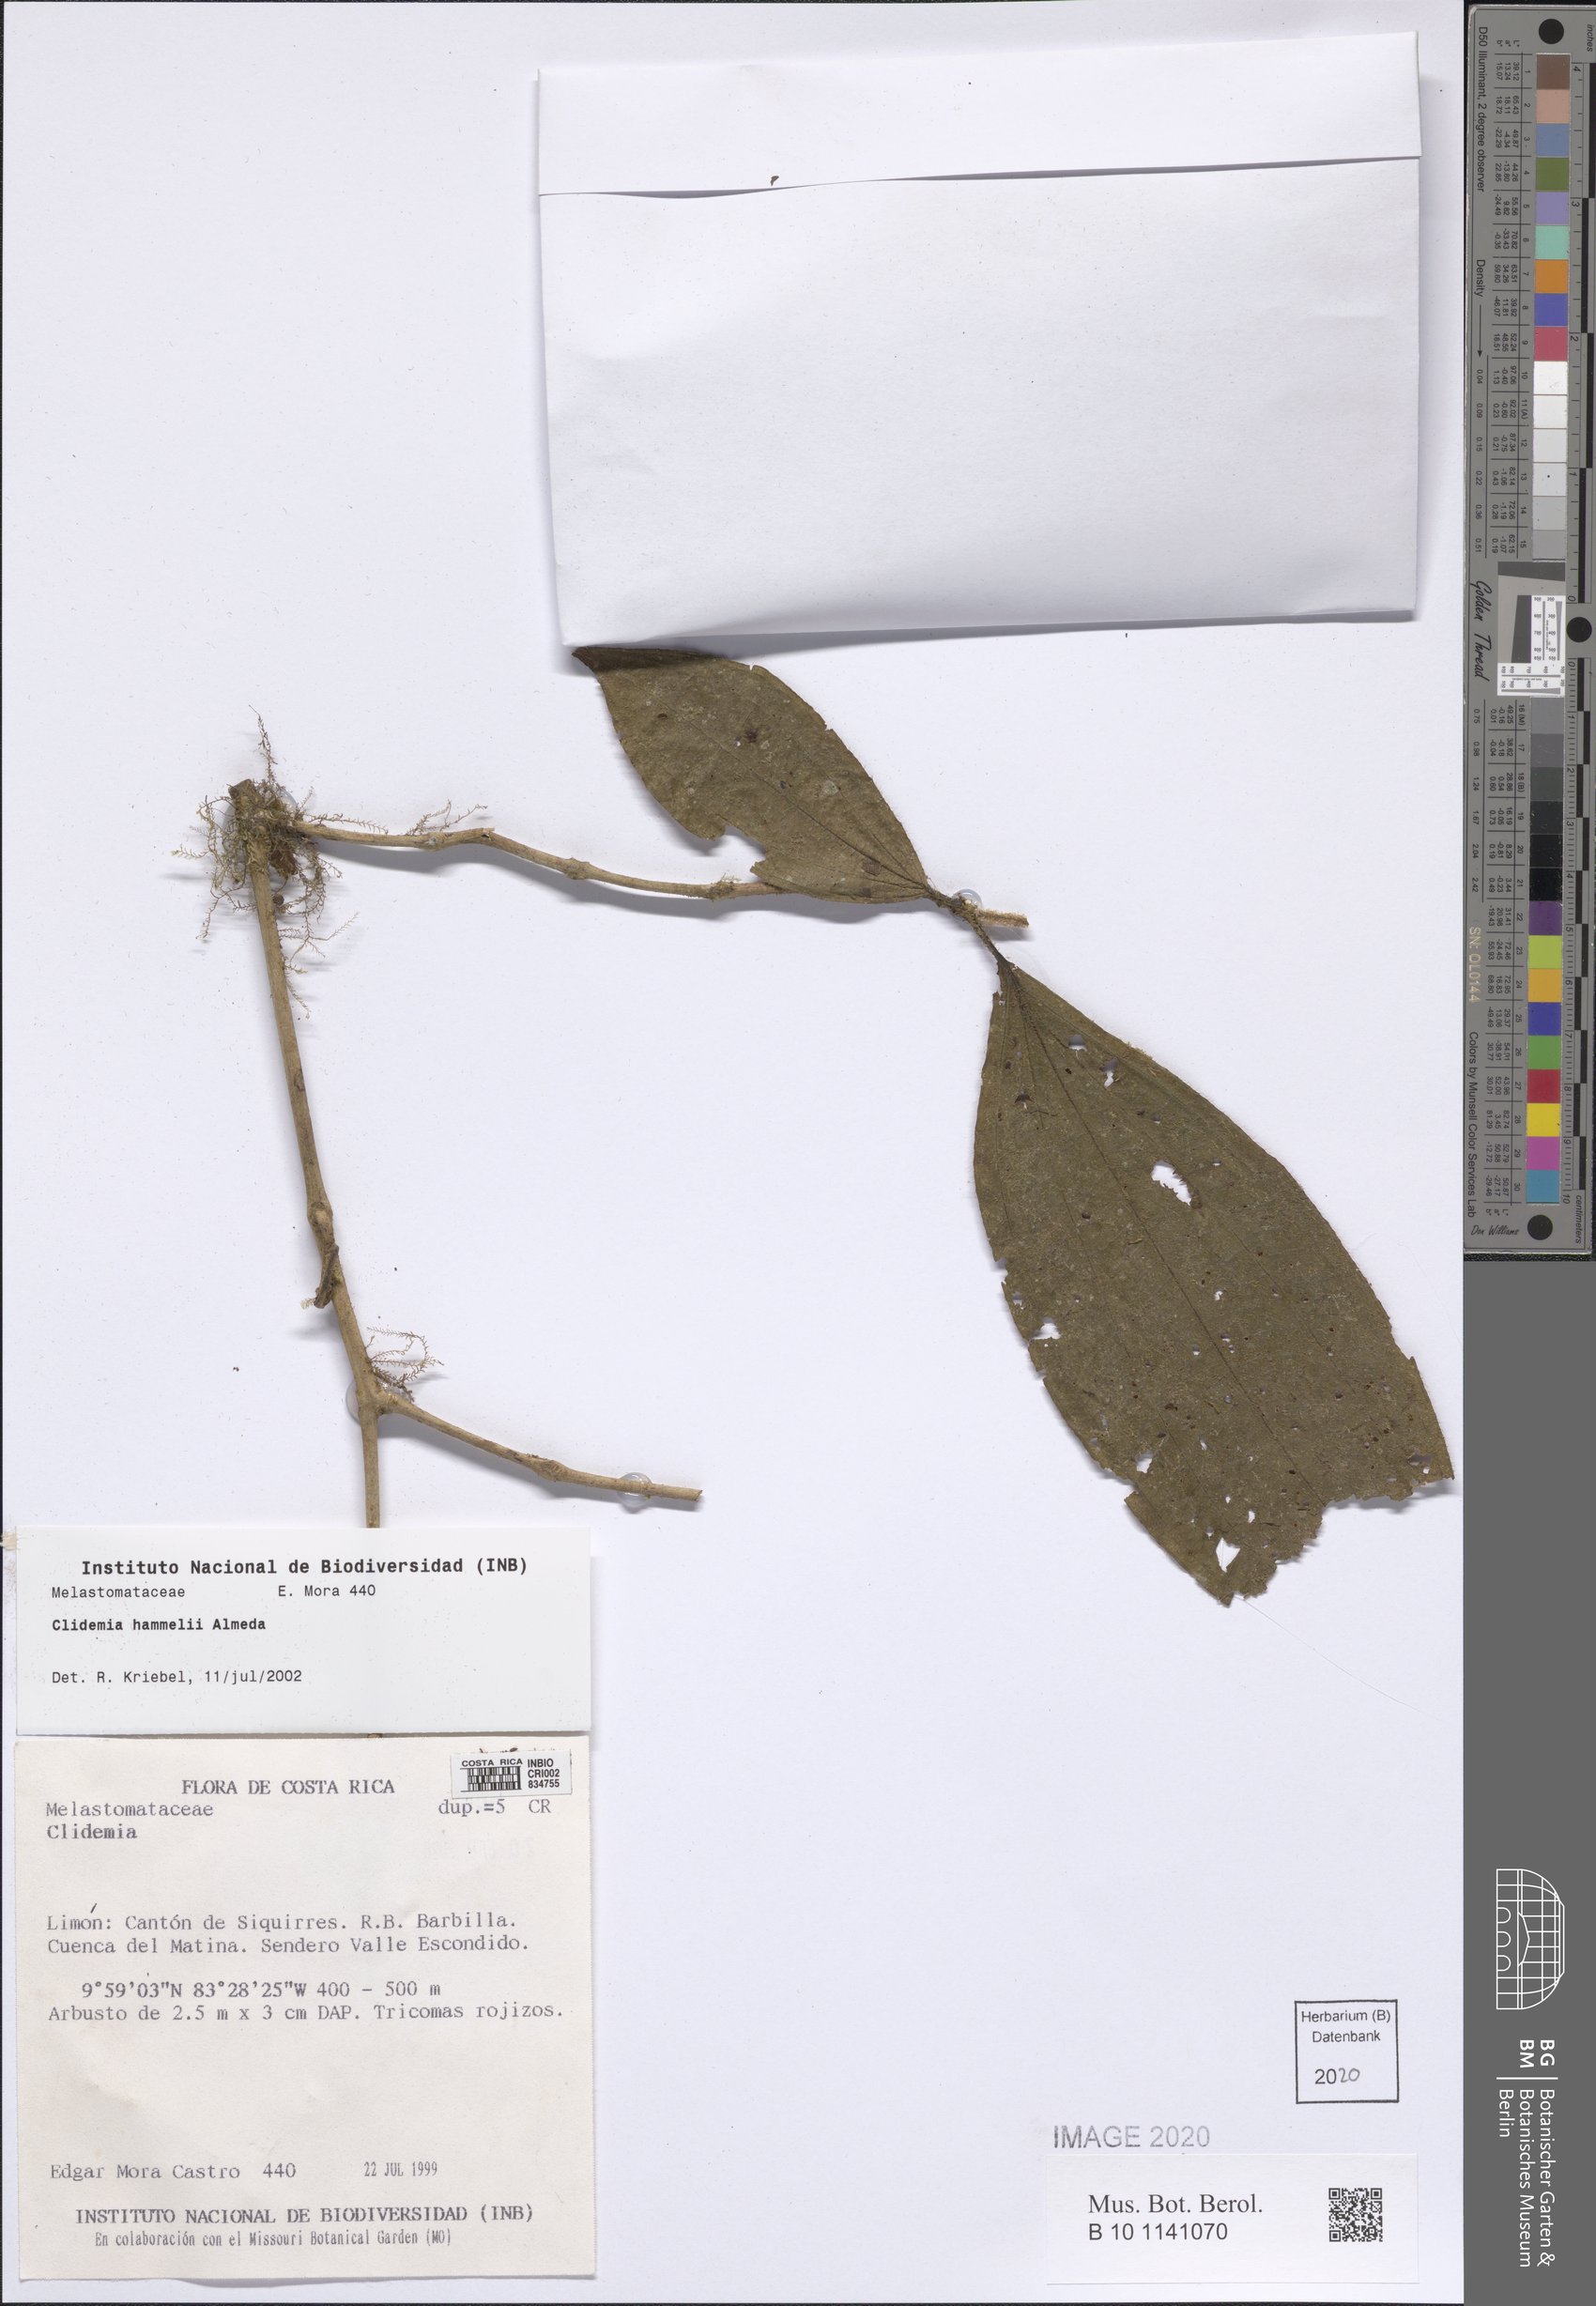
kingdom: Plantae
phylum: Tracheophyta
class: Magnoliopsida
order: Myrtales
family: Melastomataceae
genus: Miconia
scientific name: Miconia hammelii
